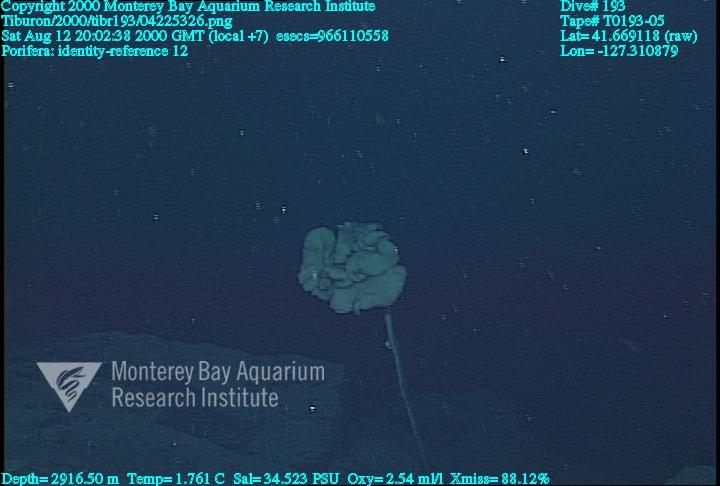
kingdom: Animalia
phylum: Porifera
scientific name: Porifera
